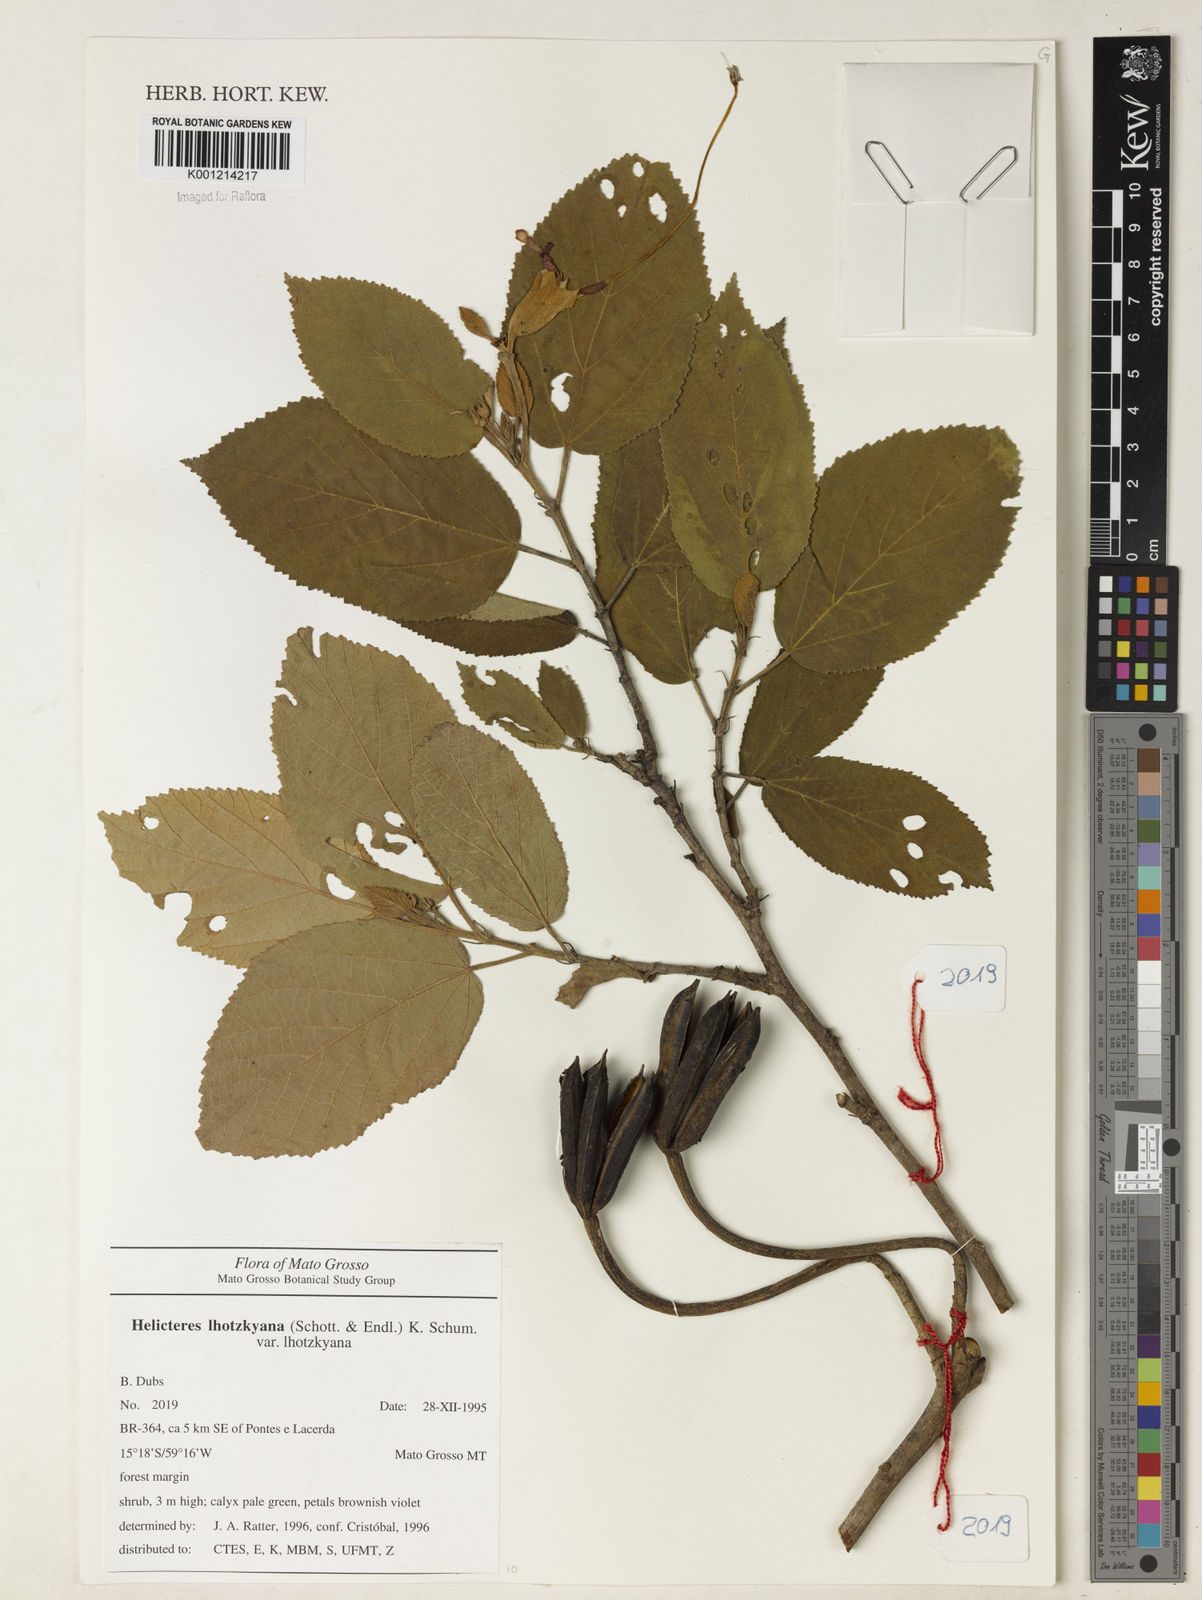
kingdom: Plantae
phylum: Tracheophyta
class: Magnoliopsida
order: Malvales
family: Malvaceae
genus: Helicteres
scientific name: Helicteres lhotzkyana
